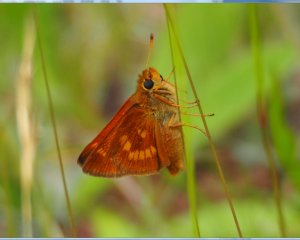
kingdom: Animalia
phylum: Arthropoda
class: Insecta
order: Lepidoptera
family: Hesperiidae
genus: Polites
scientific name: Polites
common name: Long Dash Skipper
